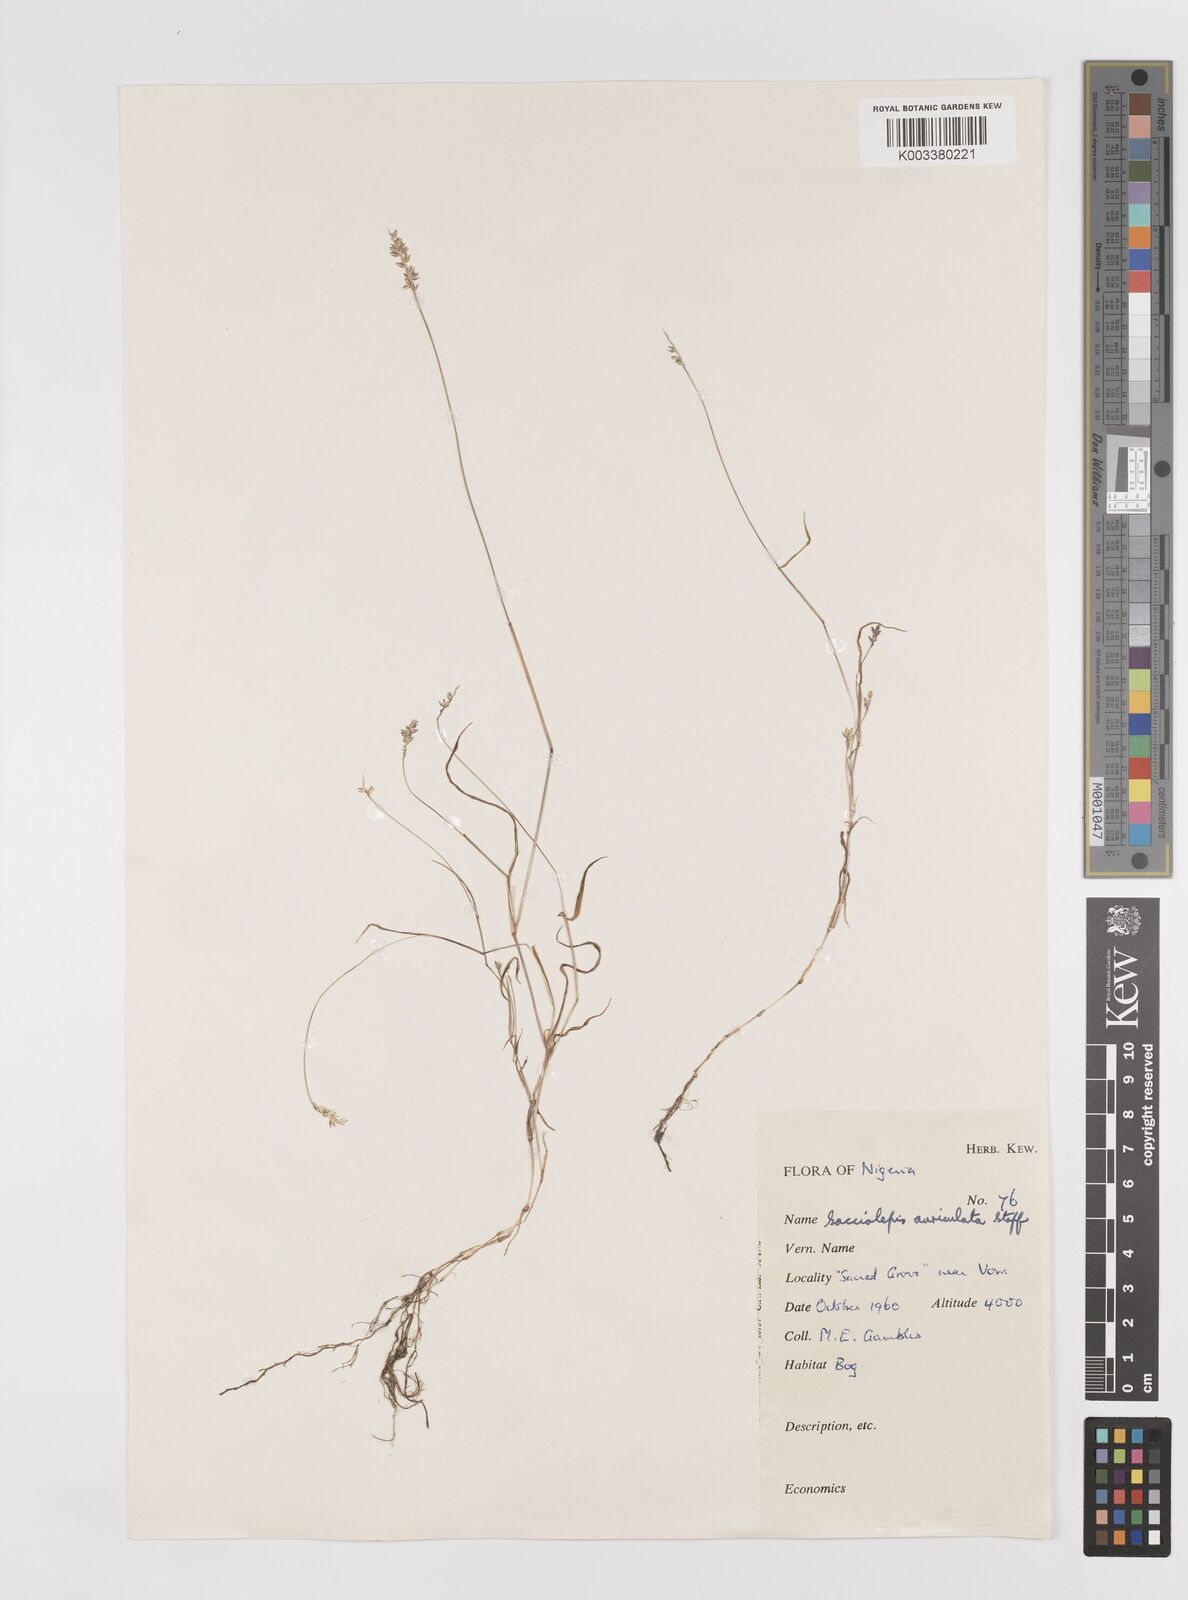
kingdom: Plantae
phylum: Tracheophyta
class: Liliopsida
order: Poales
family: Poaceae
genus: Sacciolepis
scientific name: Sacciolepis indica
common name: Glenwoodgrass
